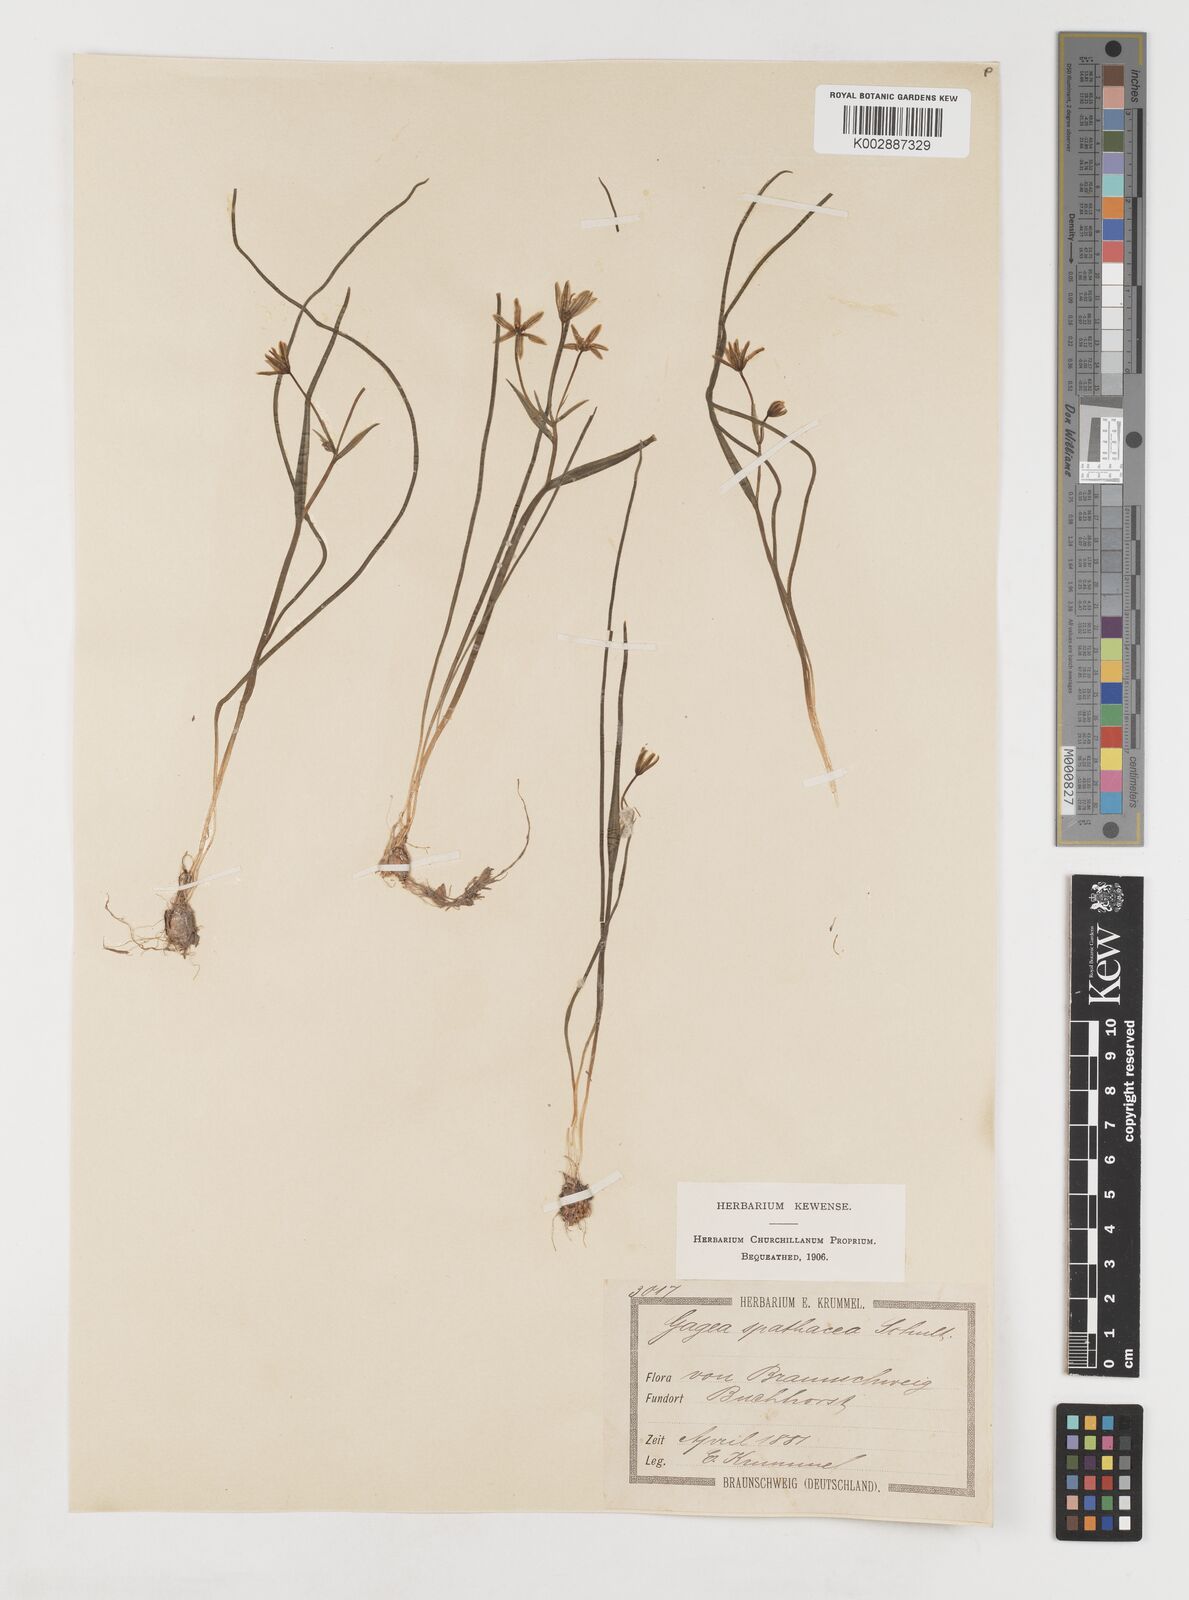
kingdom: Plantae
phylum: Tracheophyta
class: Liliopsida
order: Liliales
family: Liliaceae
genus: Gagea
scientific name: Gagea spathacea
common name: Belgian gagea
